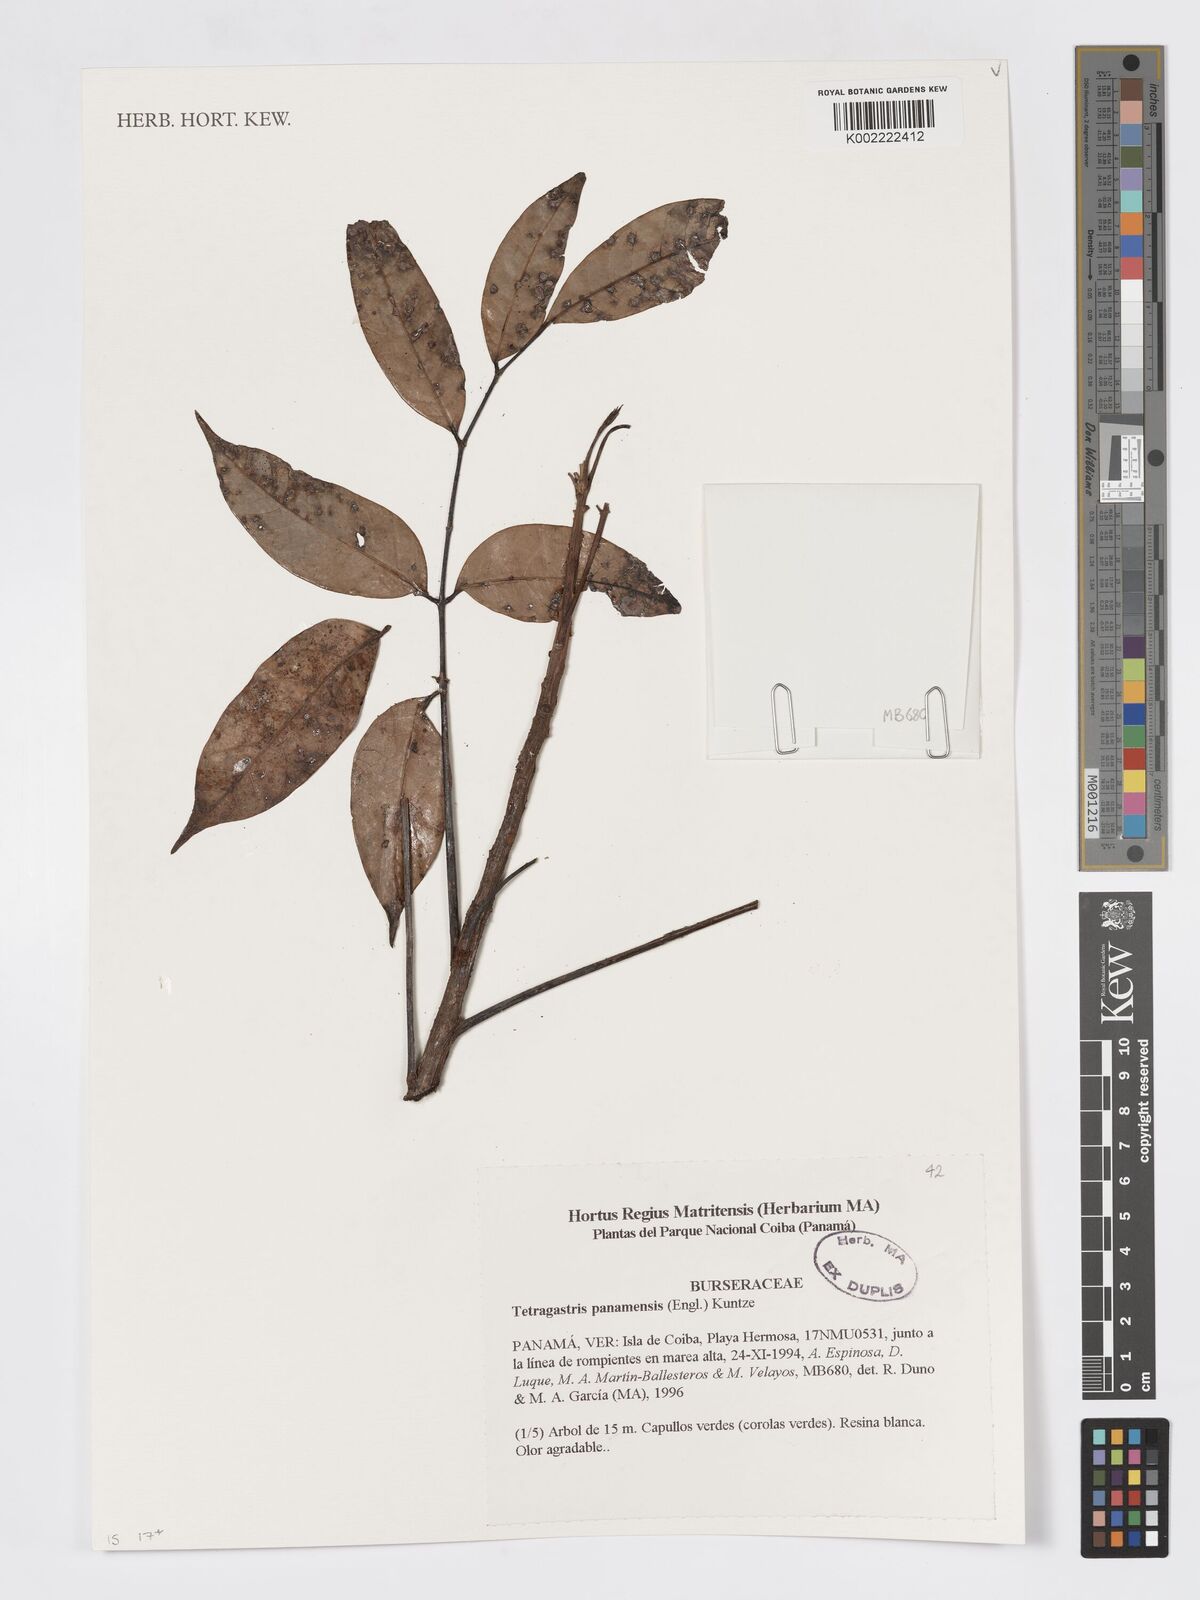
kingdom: Plantae
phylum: Tracheophyta
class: Magnoliopsida
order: Sapindales
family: Burseraceae
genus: Tetragastris
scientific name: Tetragastris panamensis
